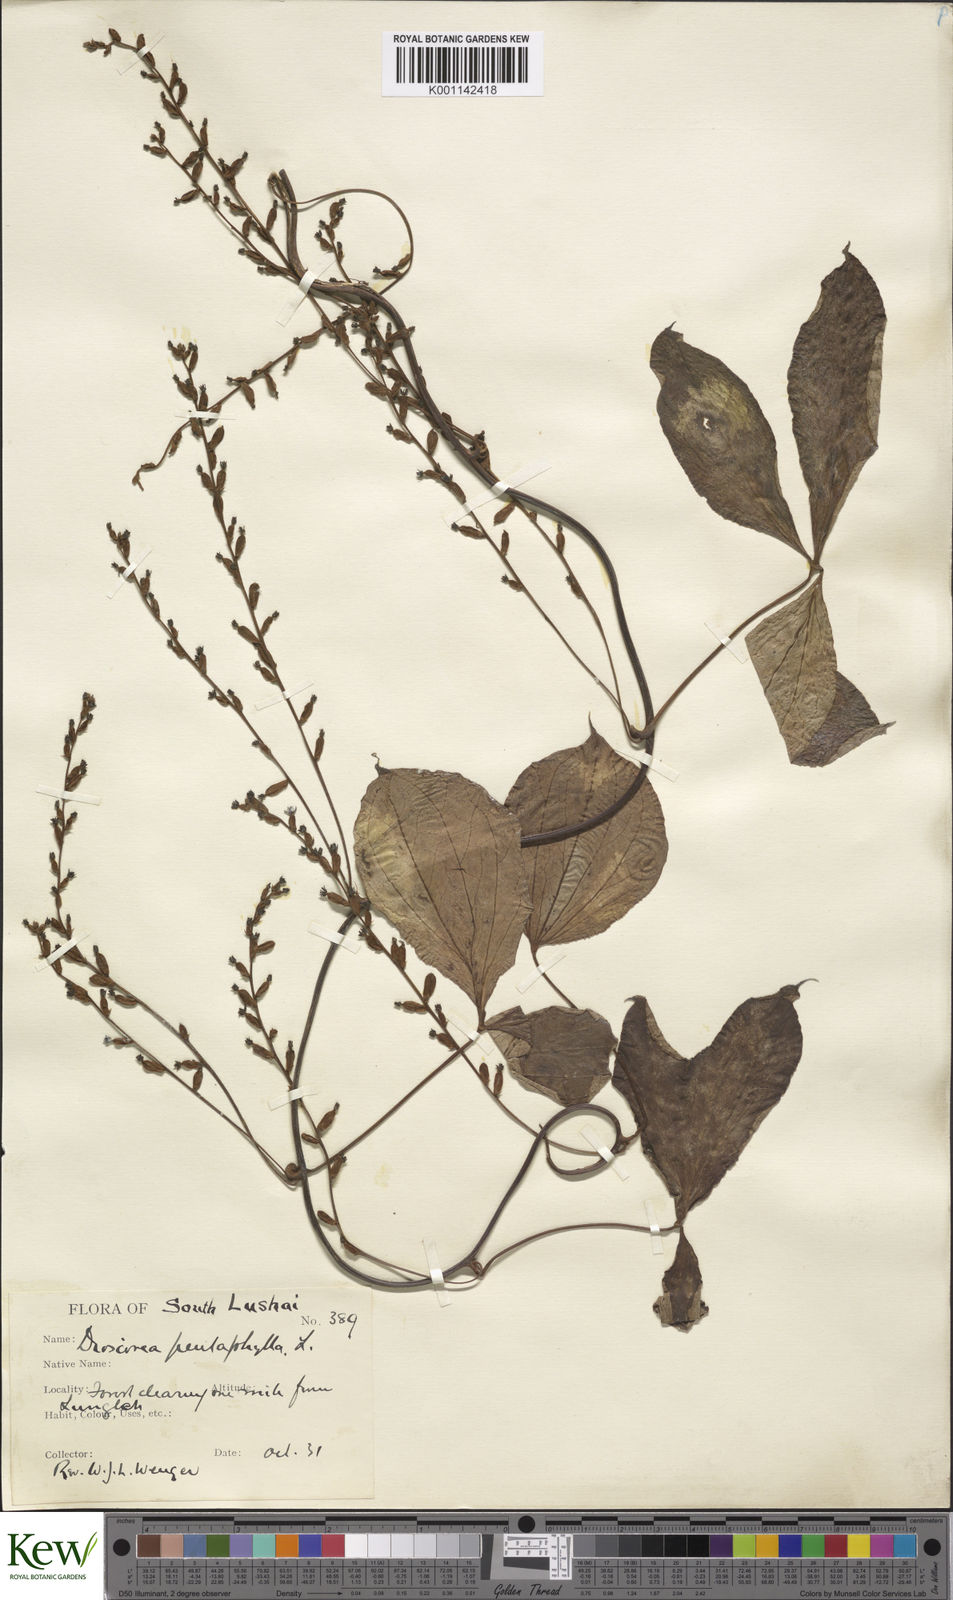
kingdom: Plantae
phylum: Tracheophyta
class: Liliopsida
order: Dioscoreales
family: Dioscoreaceae
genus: Dioscorea
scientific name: Dioscorea pentaphylla
